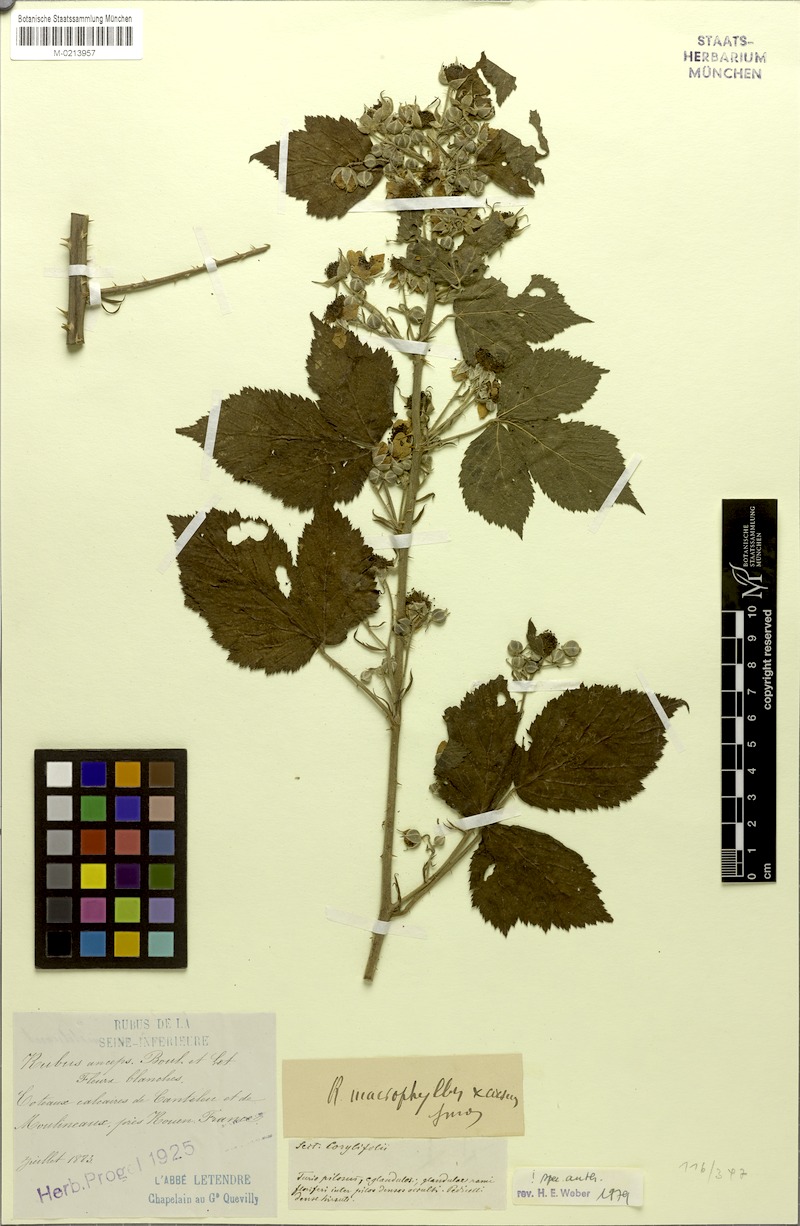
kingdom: Plantae
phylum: Tracheophyta
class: Magnoliopsida
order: Rosales
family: Rosaceae
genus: Rubus
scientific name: Rubus anceps
